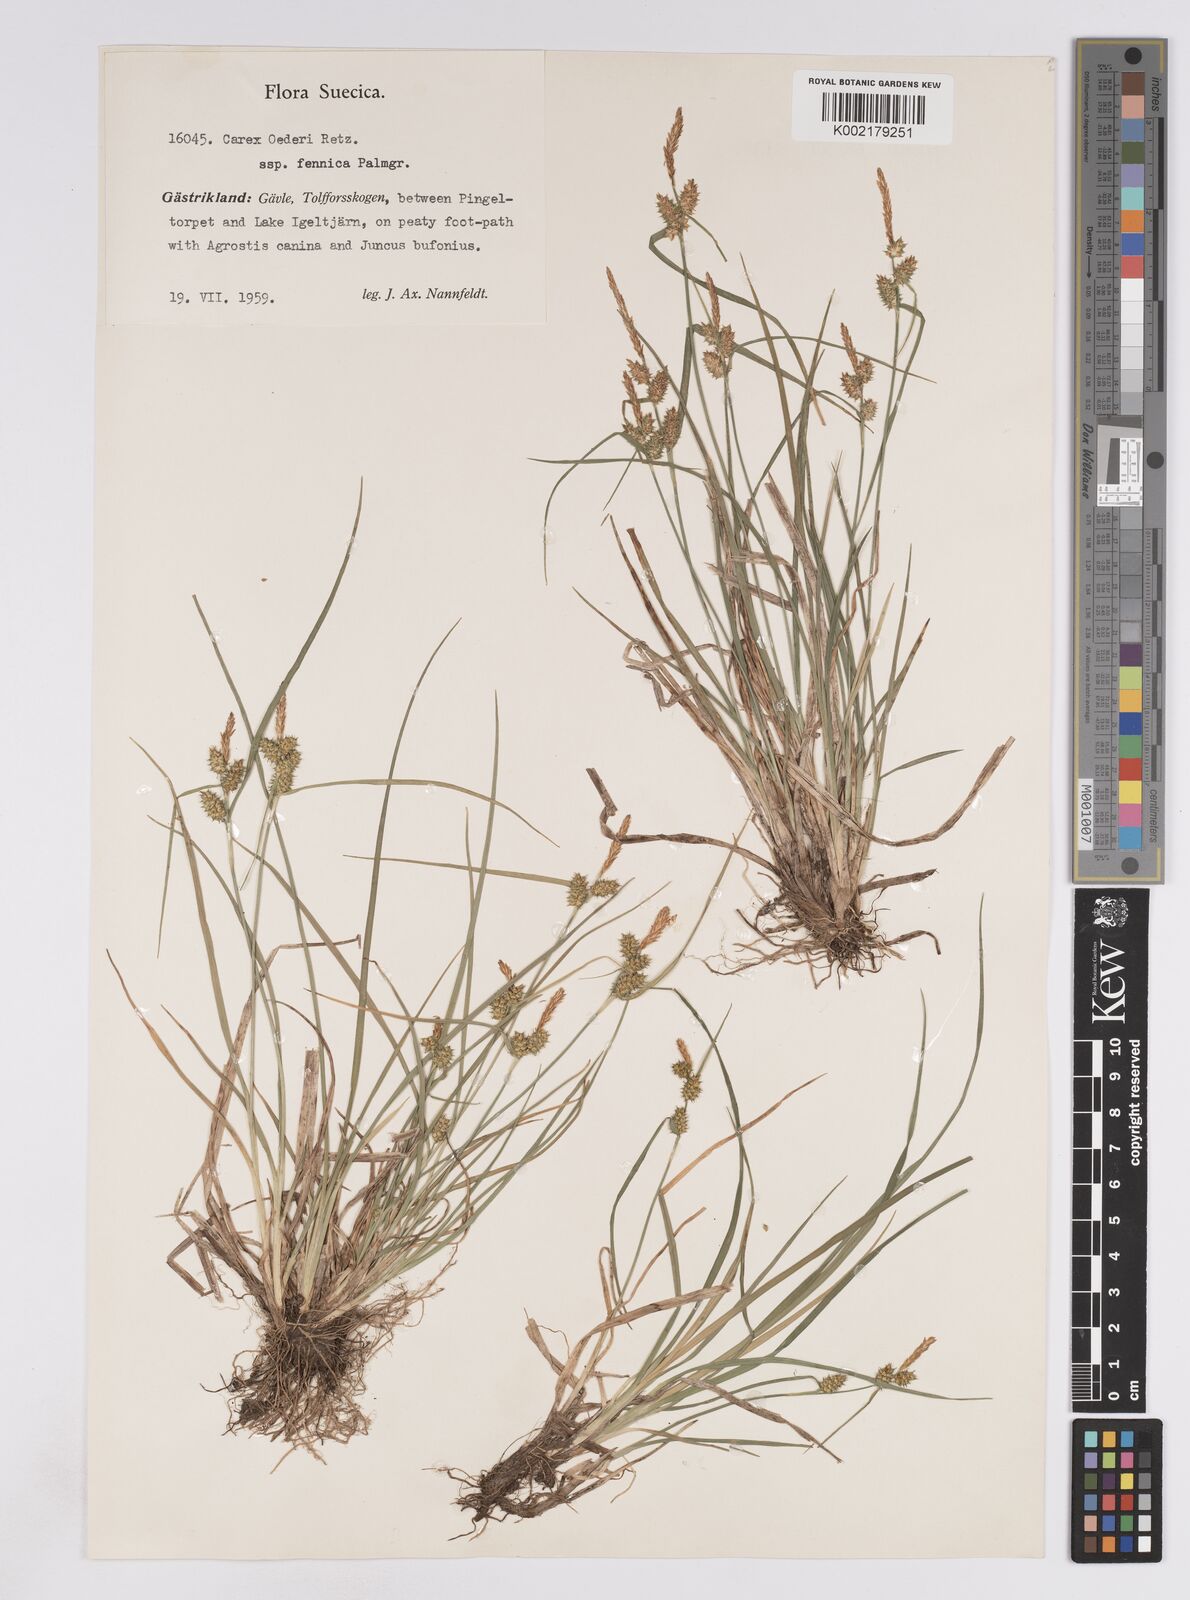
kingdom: Plantae
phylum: Tracheophyta
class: Liliopsida
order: Poales
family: Cyperaceae
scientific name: Cyperaceae
